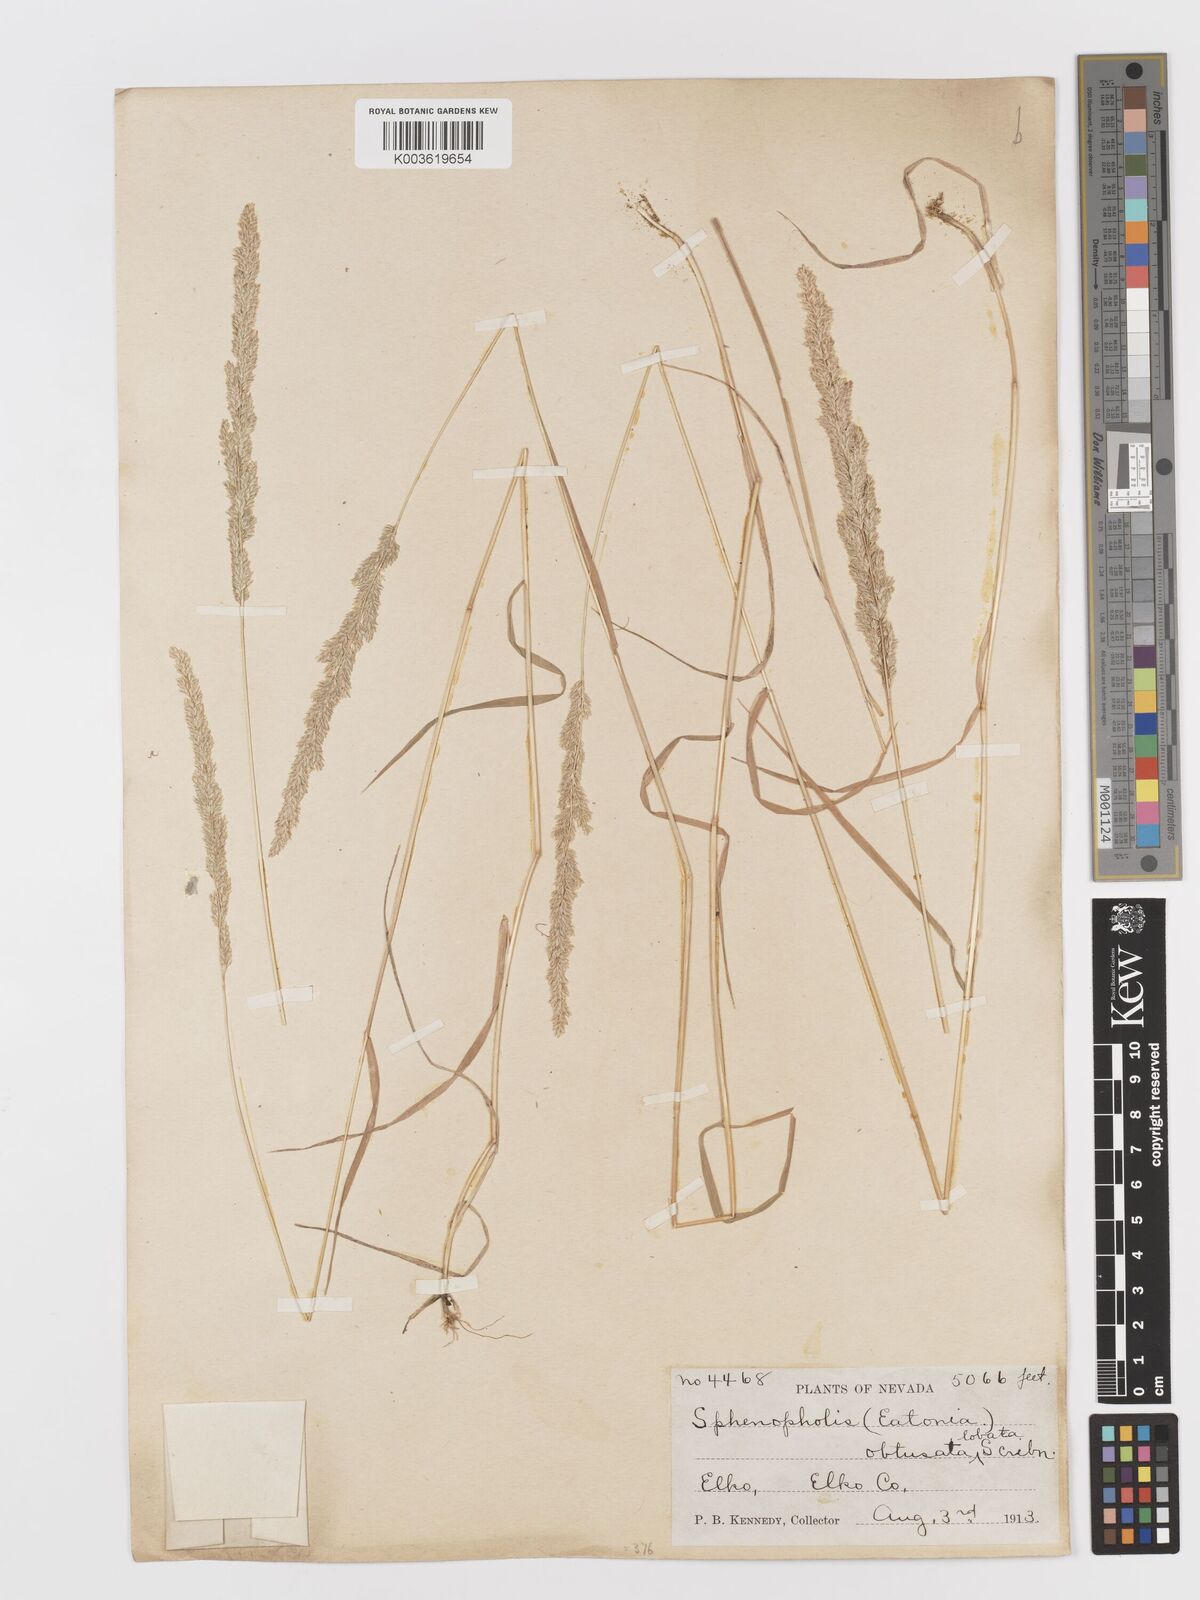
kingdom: Plantae
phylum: Tracheophyta
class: Liliopsida
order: Poales
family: Poaceae
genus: Sphenopholis
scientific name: Sphenopholis obtusata
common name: Prairie grass
